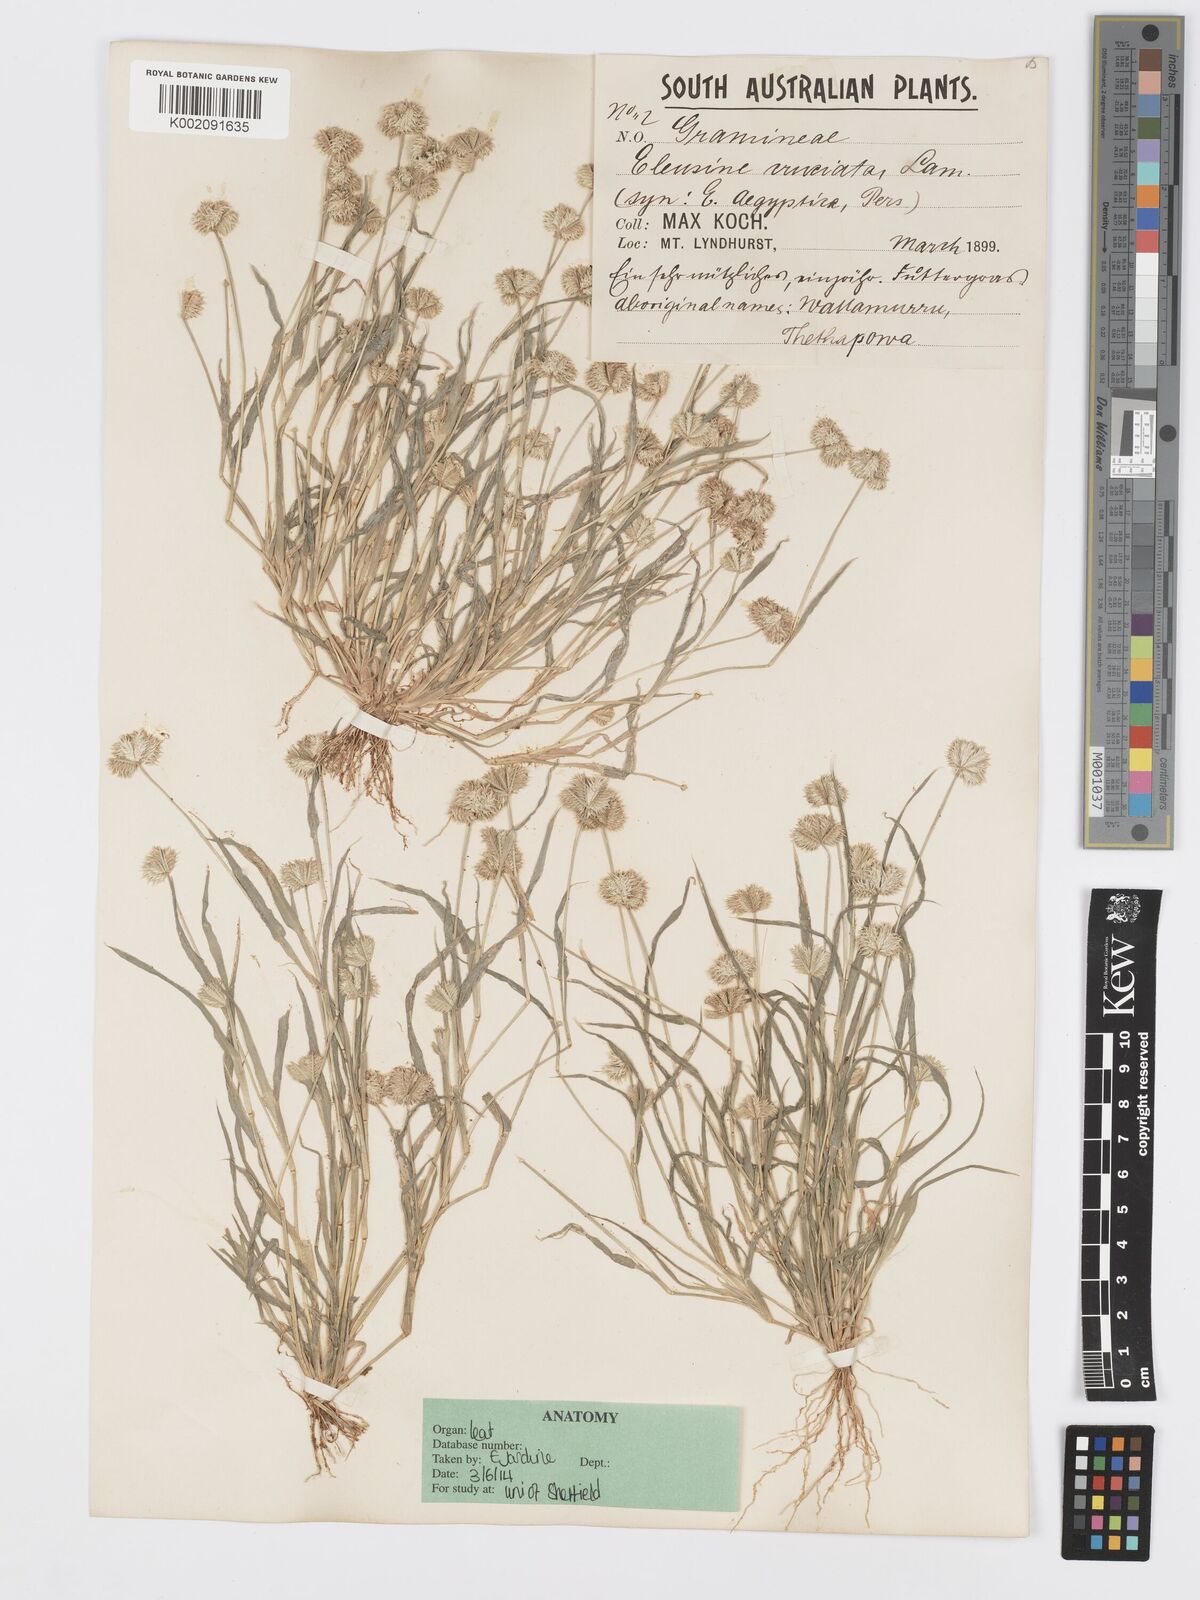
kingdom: Plantae
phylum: Tracheophyta
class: Liliopsida
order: Poales
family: Poaceae
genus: Dactyloctenium
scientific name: Dactyloctenium radulans
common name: Button-grass
